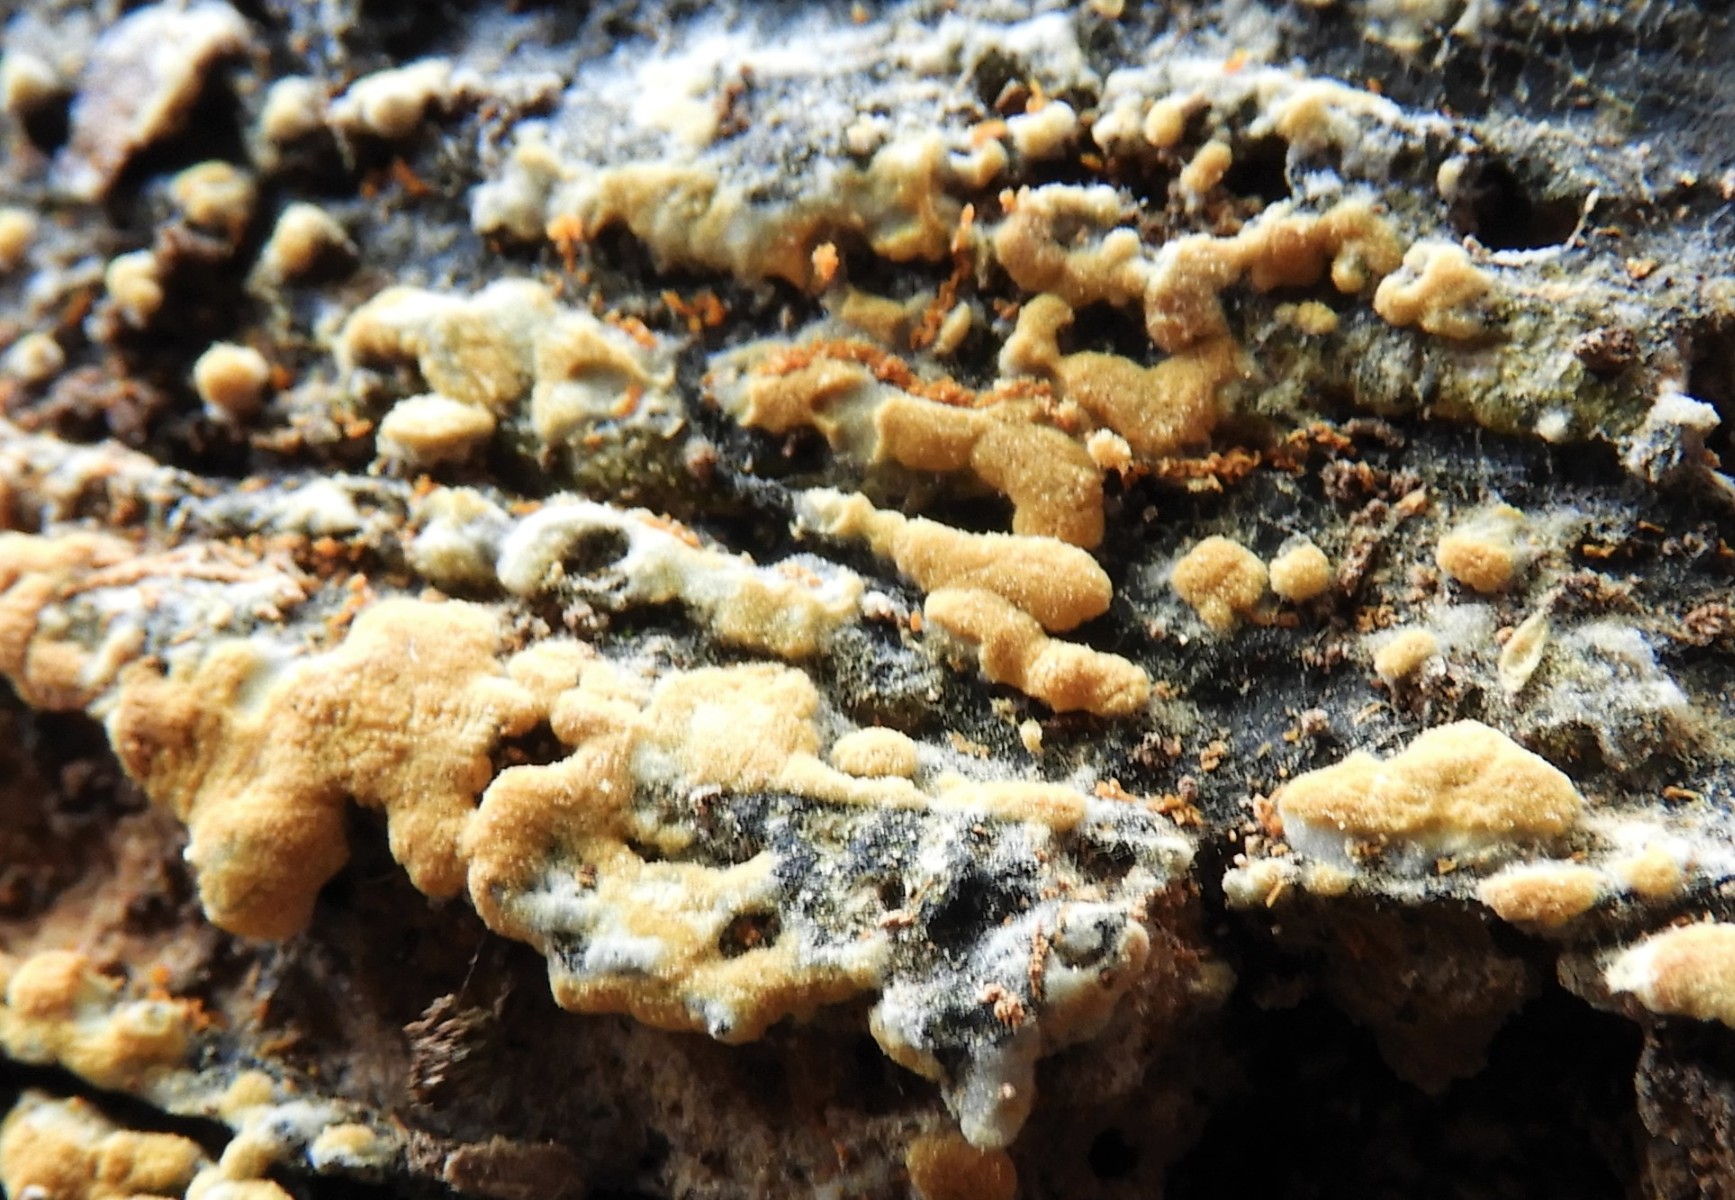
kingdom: Fungi
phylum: Basidiomycota
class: Agaricomycetes
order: Cantharellales
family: Botryobasidiaceae
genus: Botryobasidium
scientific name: Botryobasidium aureum
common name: gylden spindhinde
